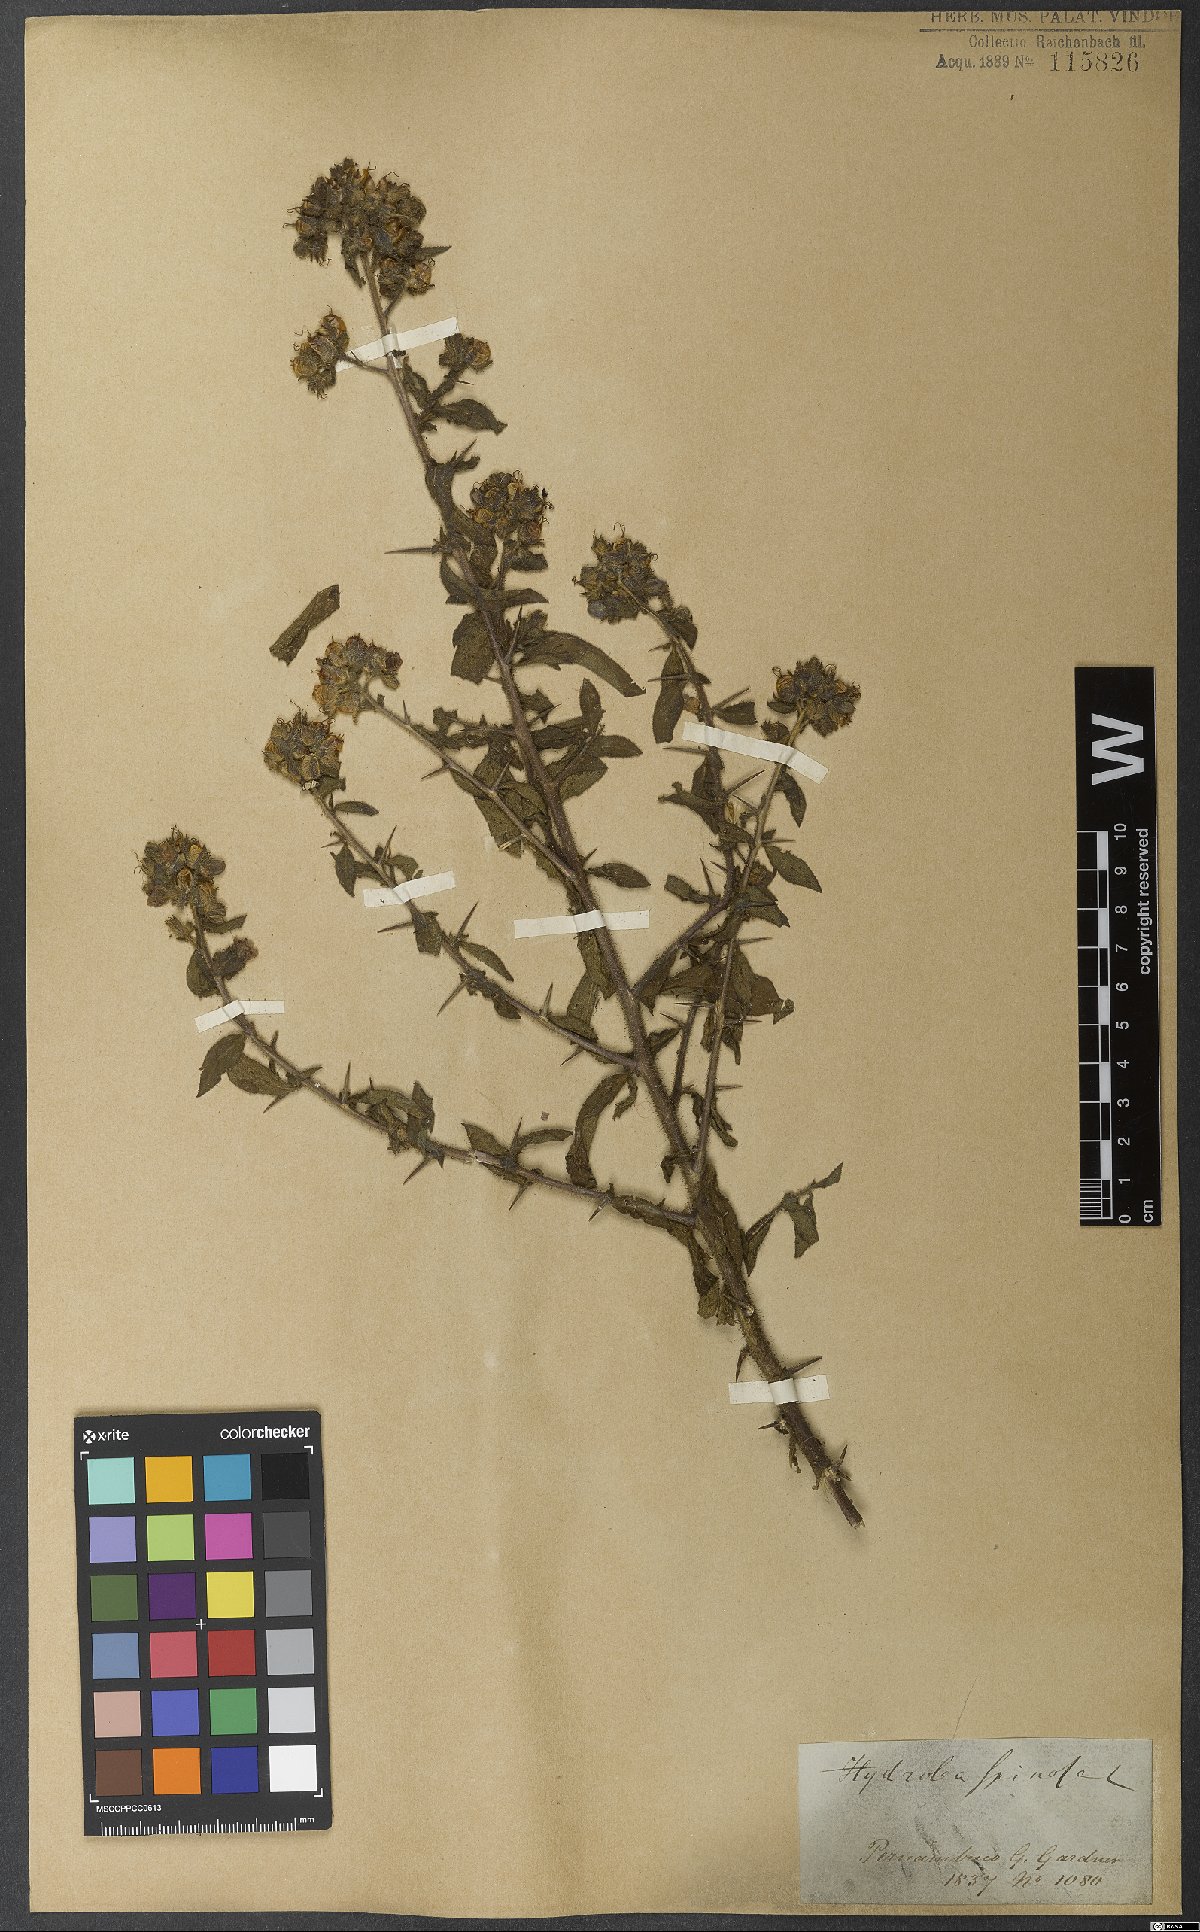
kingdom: Plantae
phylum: Tracheophyta
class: Magnoliopsida
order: Solanales
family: Hydroleaceae
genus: Hydrolea
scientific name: Hydrolea spinosa
